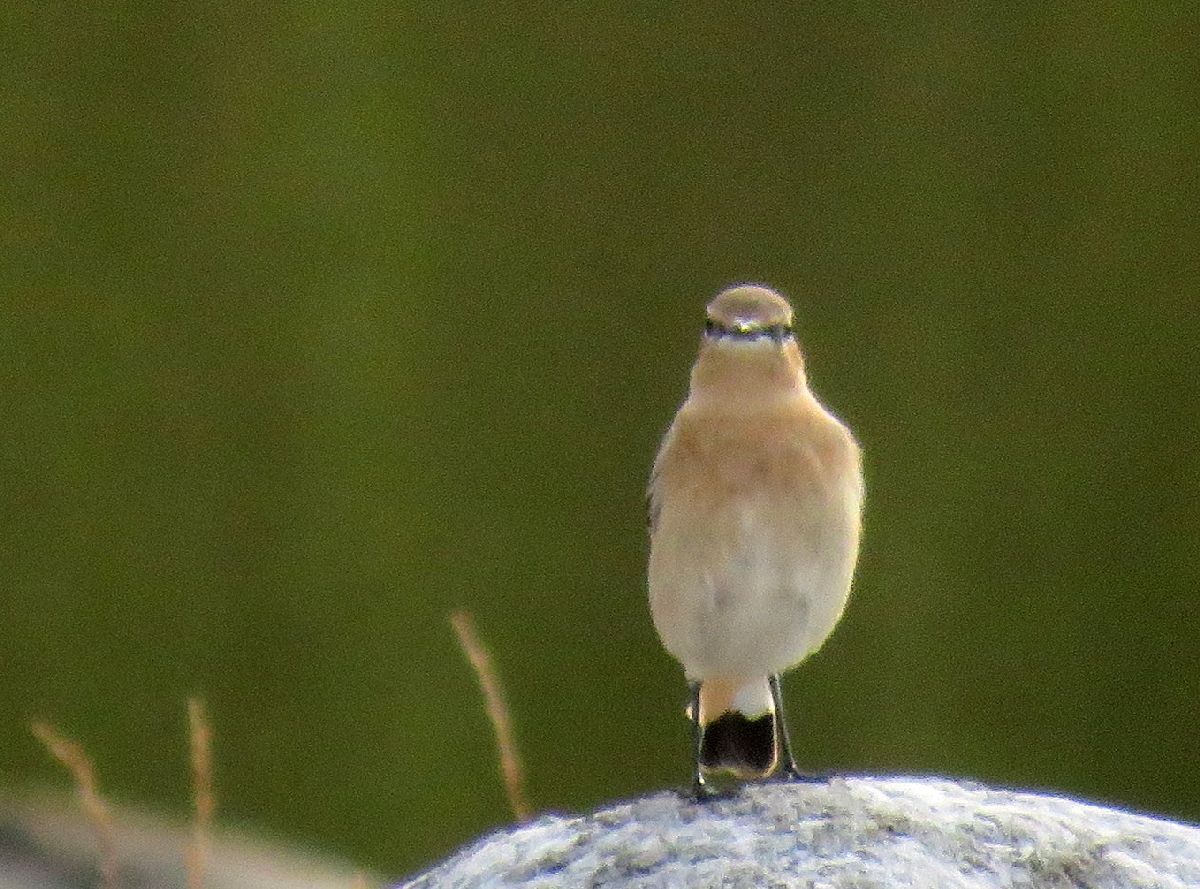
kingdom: Animalia
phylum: Chordata
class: Aves
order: Passeriformes
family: Muscicapidae
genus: Oenanthe
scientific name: Oenanthe oenanthe
